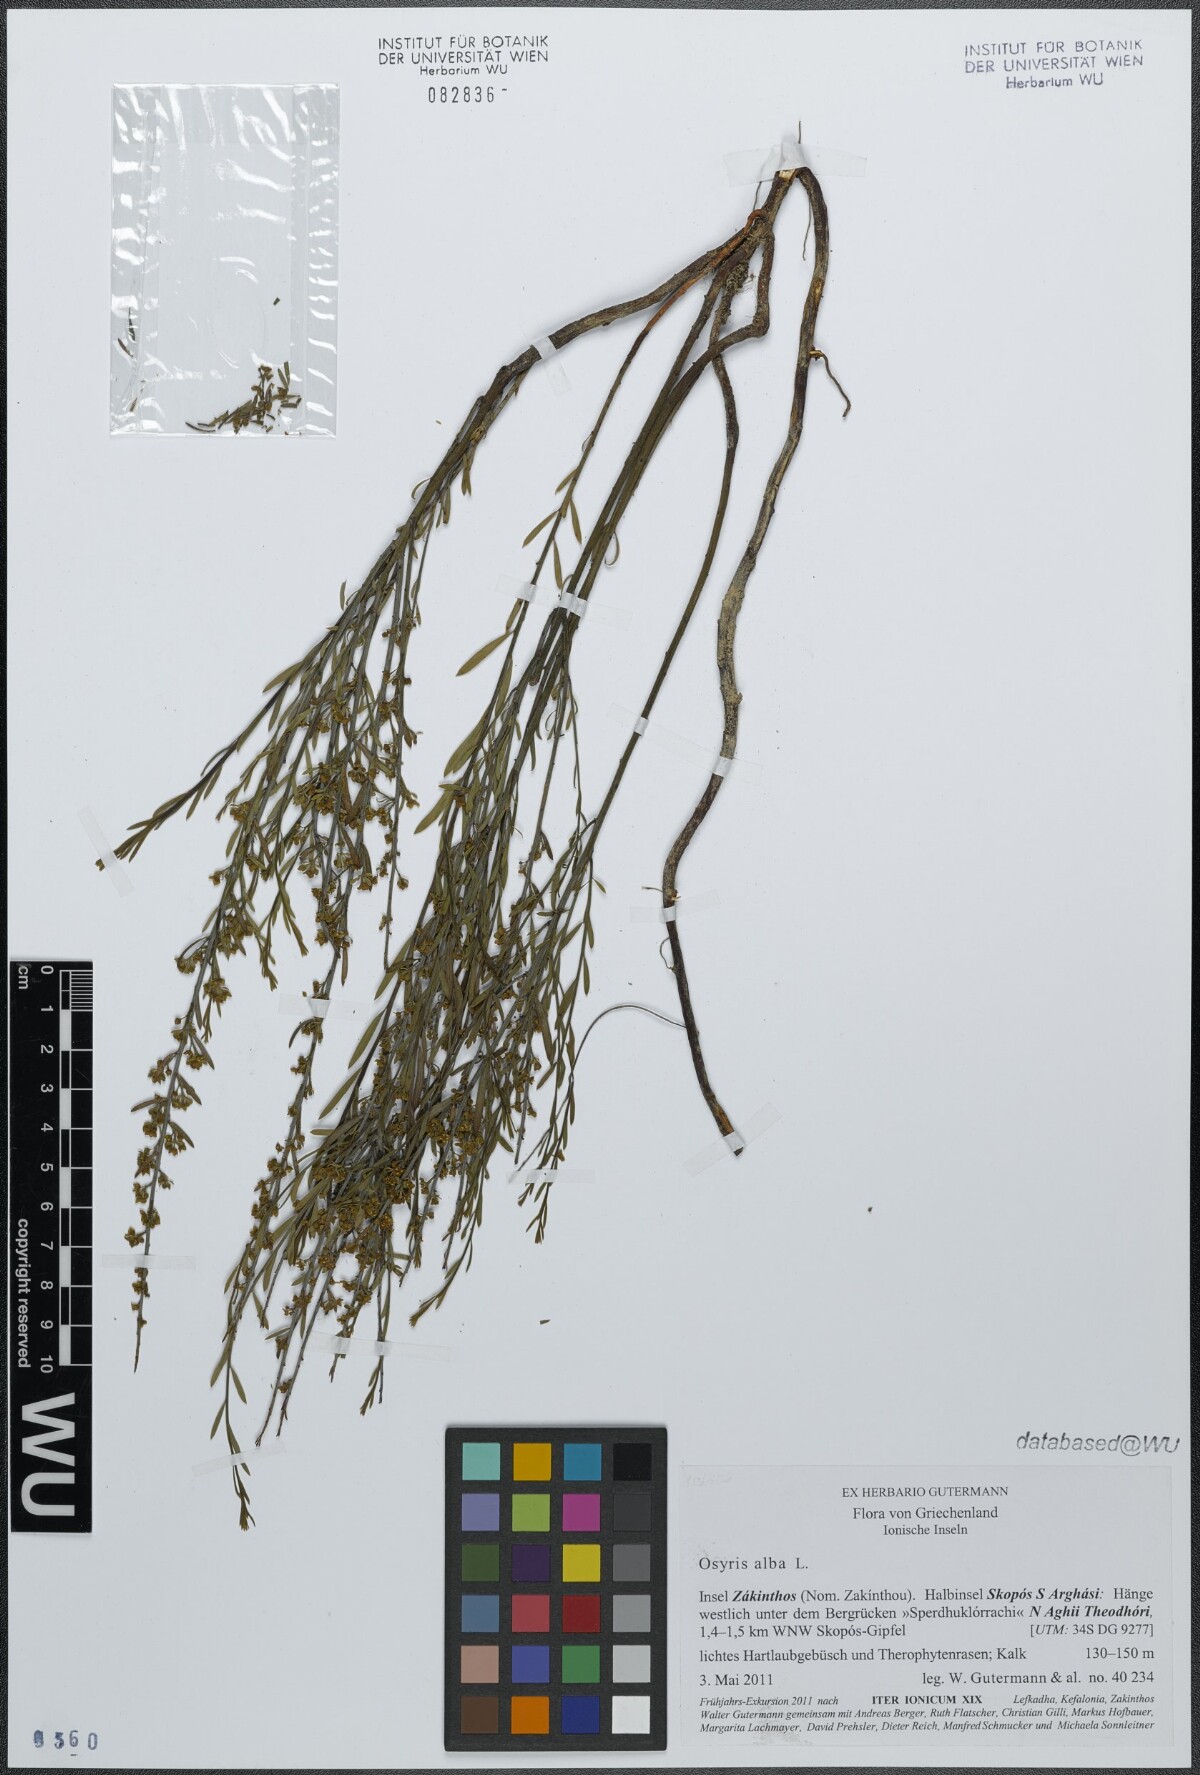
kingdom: Plantae
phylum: Tracheophyta
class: Magnoliopsida
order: Santalales
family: Santalaceae
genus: Osyris
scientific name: Osyris alba
